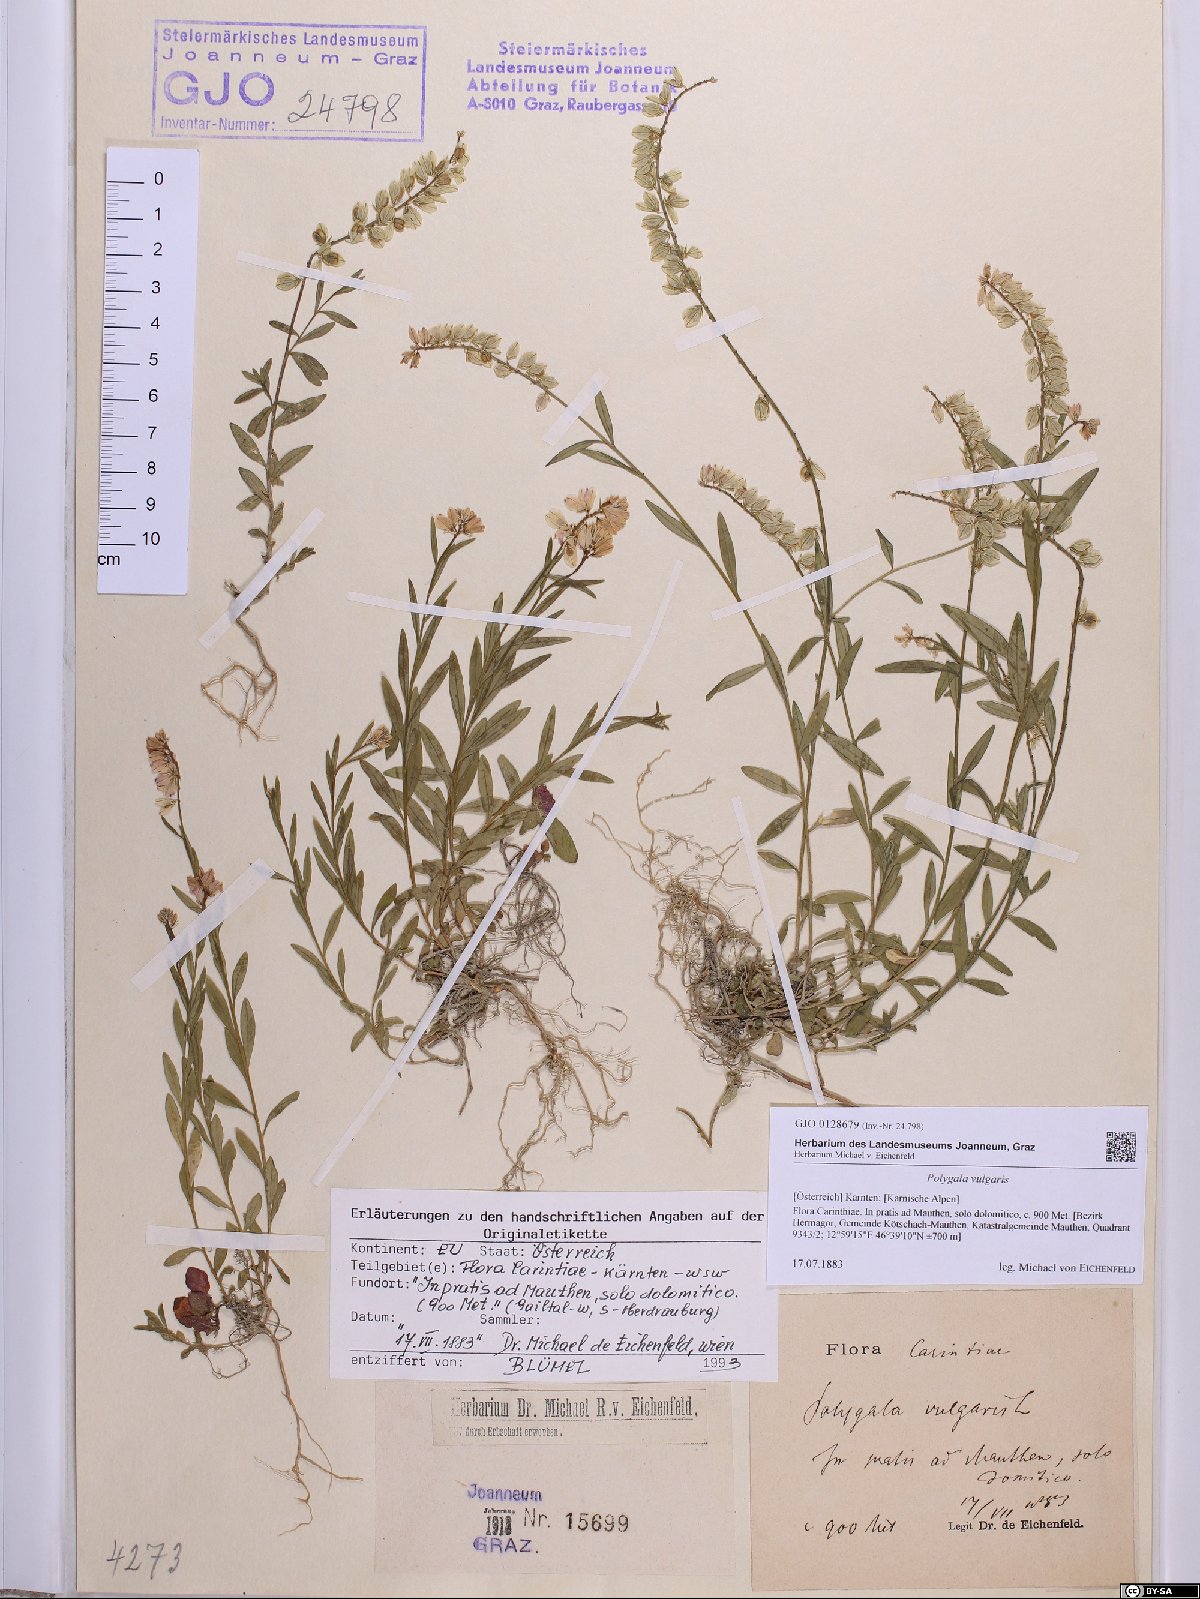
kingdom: Plantae
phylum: Tracheophyta
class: Magnoliopsida
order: Fabales
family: Polygalaceae
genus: Polygala
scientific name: Polygala vulgaris
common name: Common milkwort
